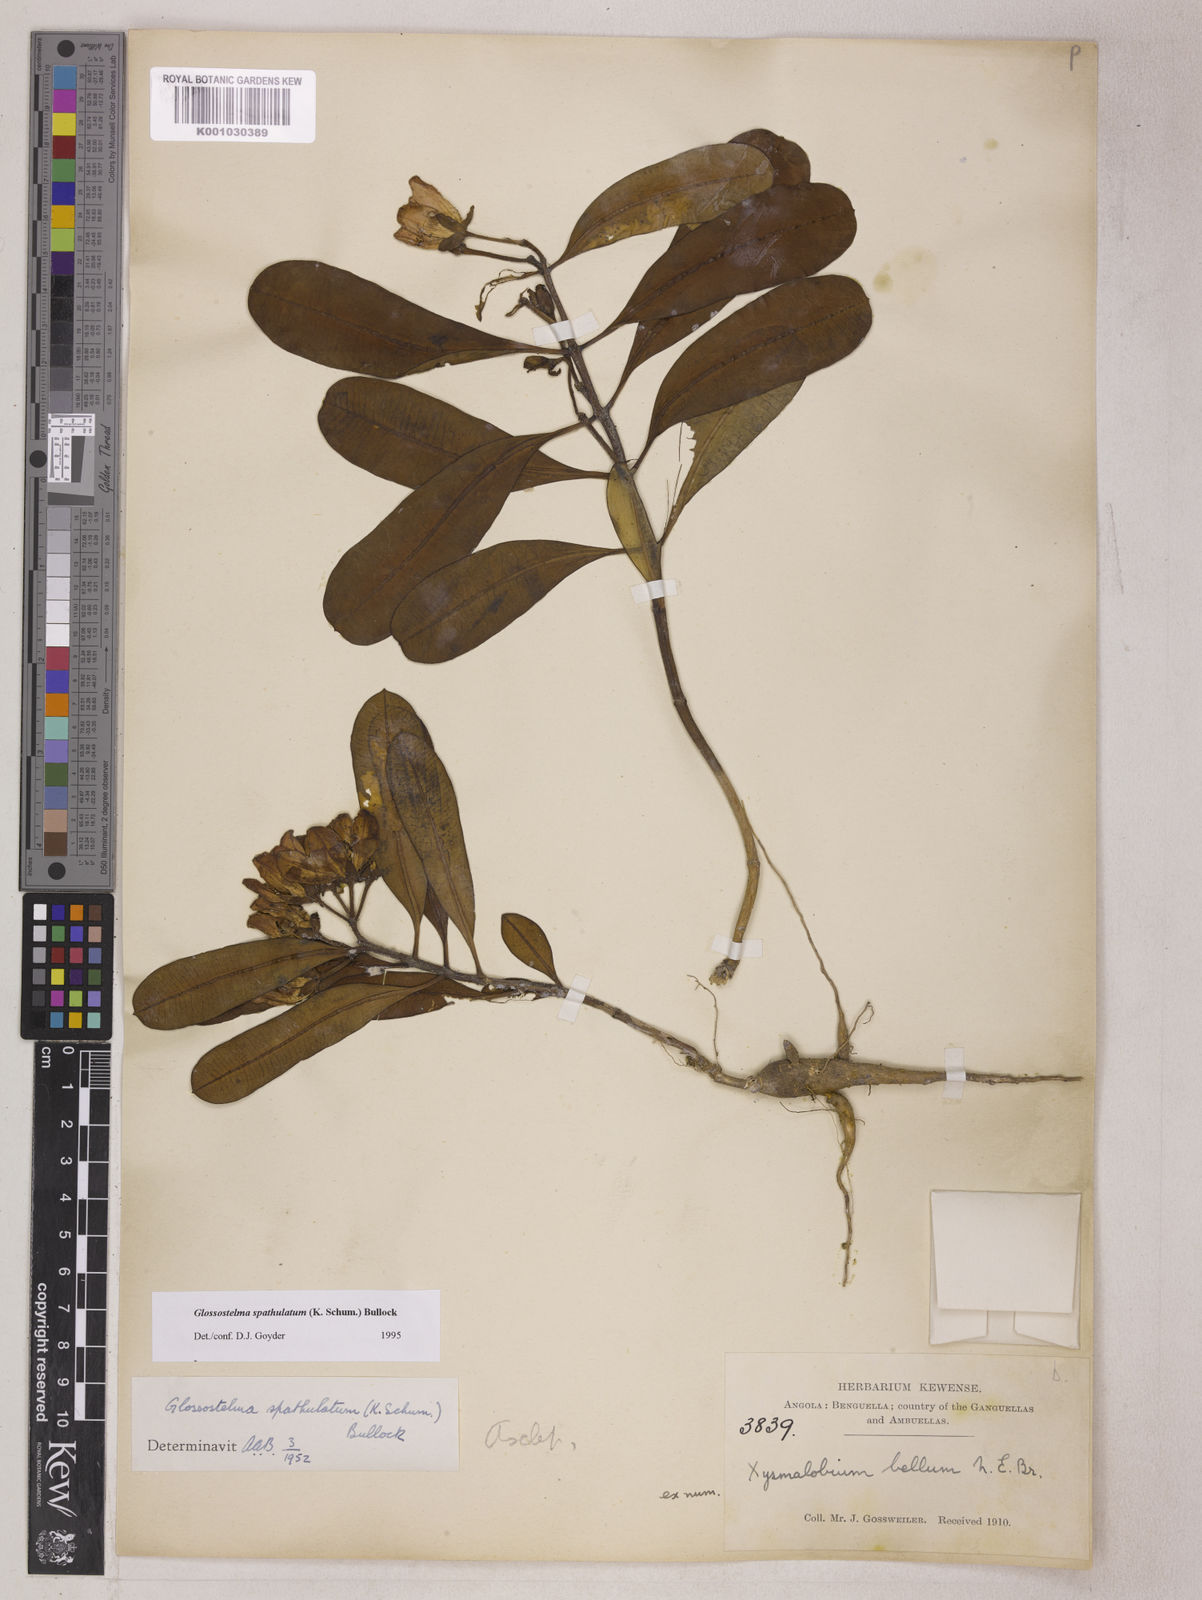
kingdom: Plantae
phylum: Tracheophyta
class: Magnoliopsida
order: Gentianales
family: Apocynaceae
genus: Glossostelma
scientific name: Glossostelma spathulatum
